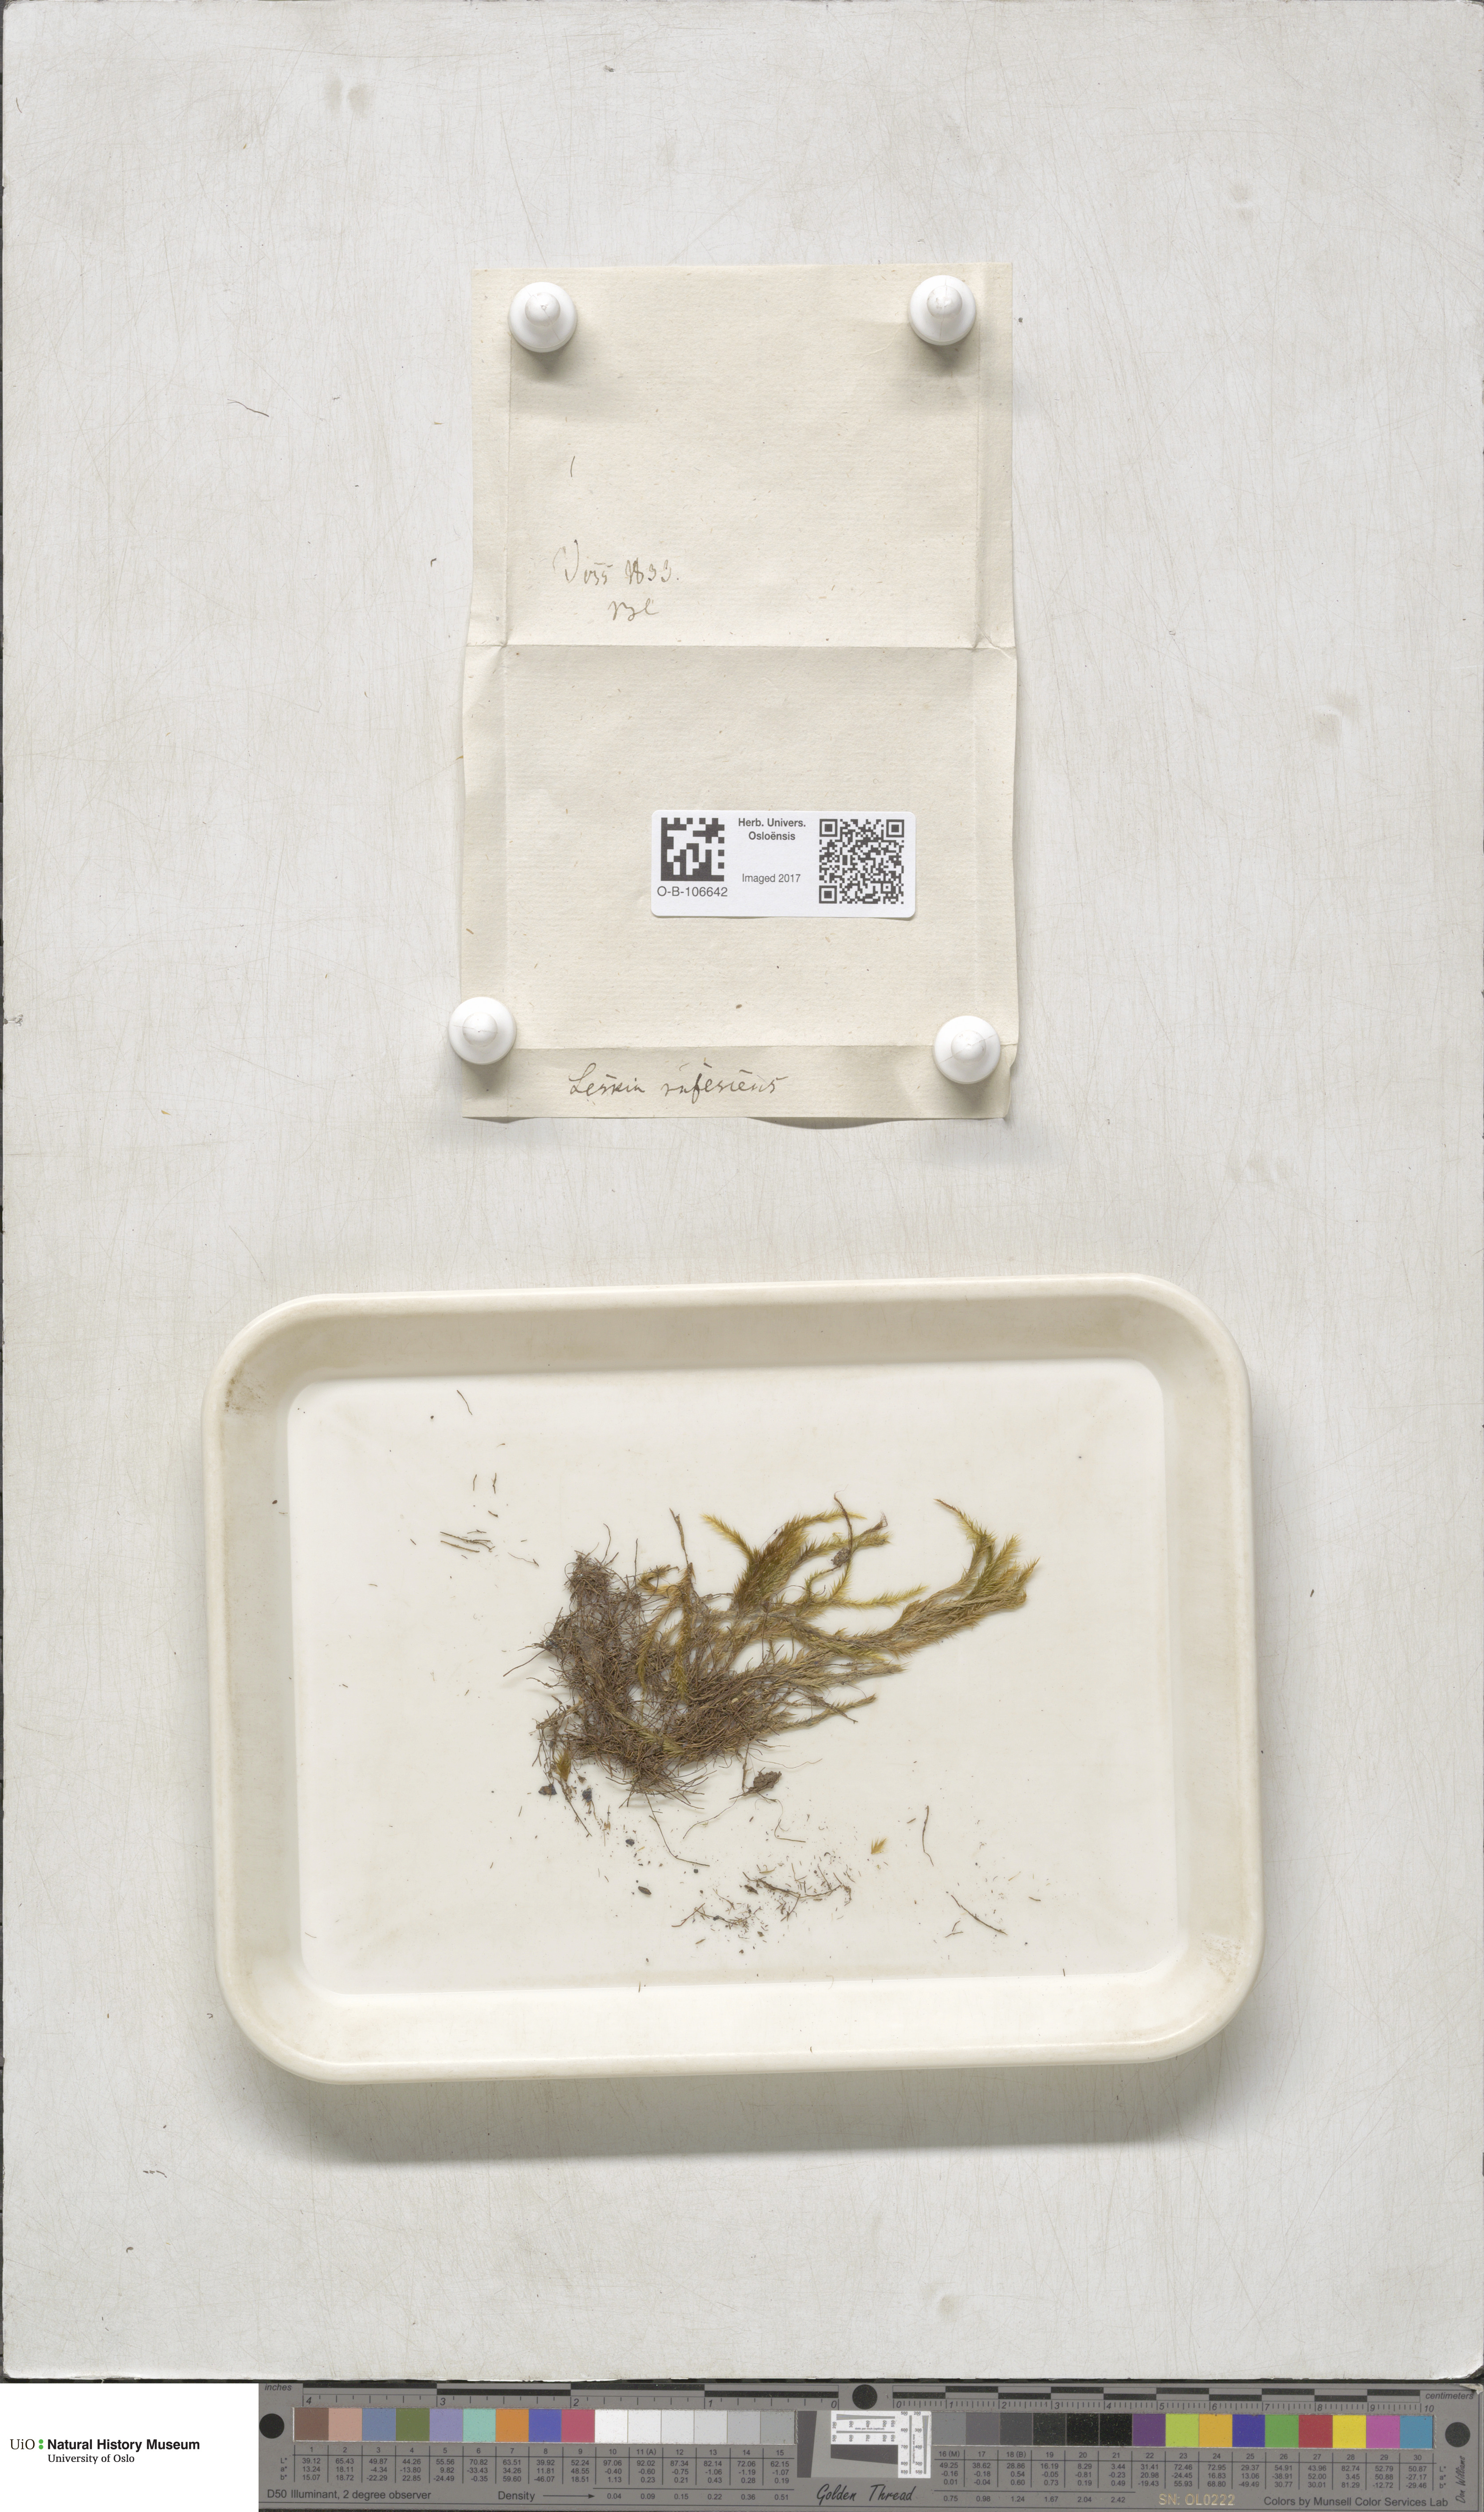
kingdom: Plantae
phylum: Bryophyta
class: Bryopsida
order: Hypnales
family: Plagiotheciaceae
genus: Orthothecium
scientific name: Orthothecium rufescens
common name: Red leskea
